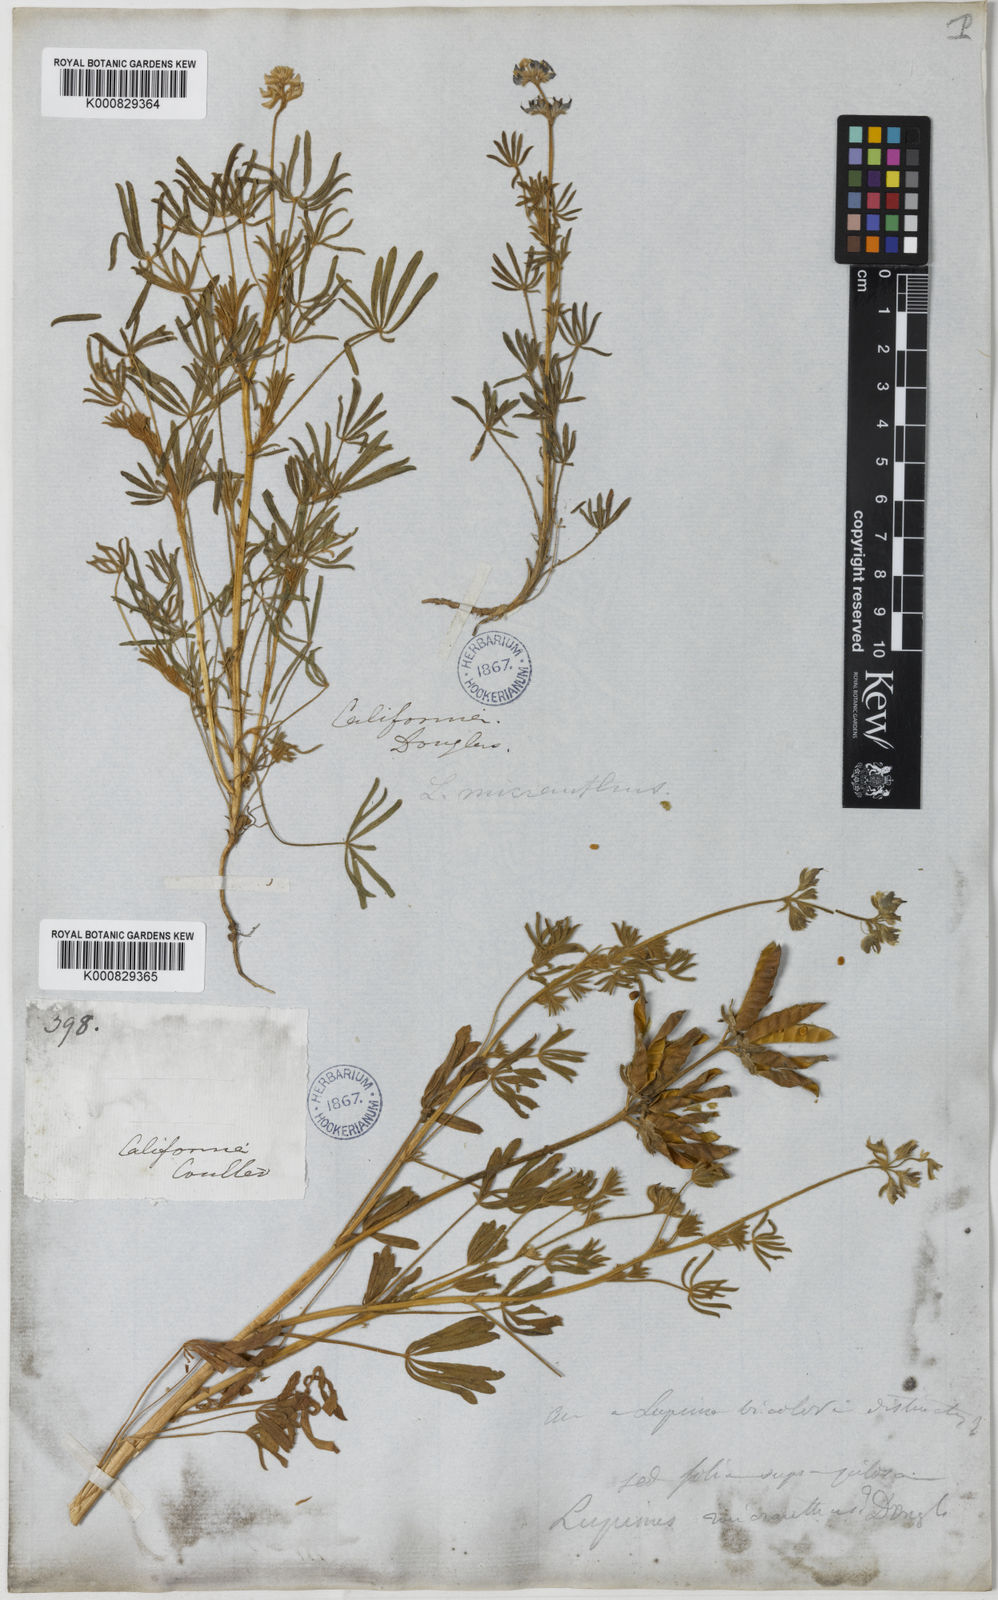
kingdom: Plantae
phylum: Tracheophyta
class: Magnoliopsida
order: Fabales
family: Fabaceae
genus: Lupinus
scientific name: Lupinus bicolor
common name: Miniature lupine
